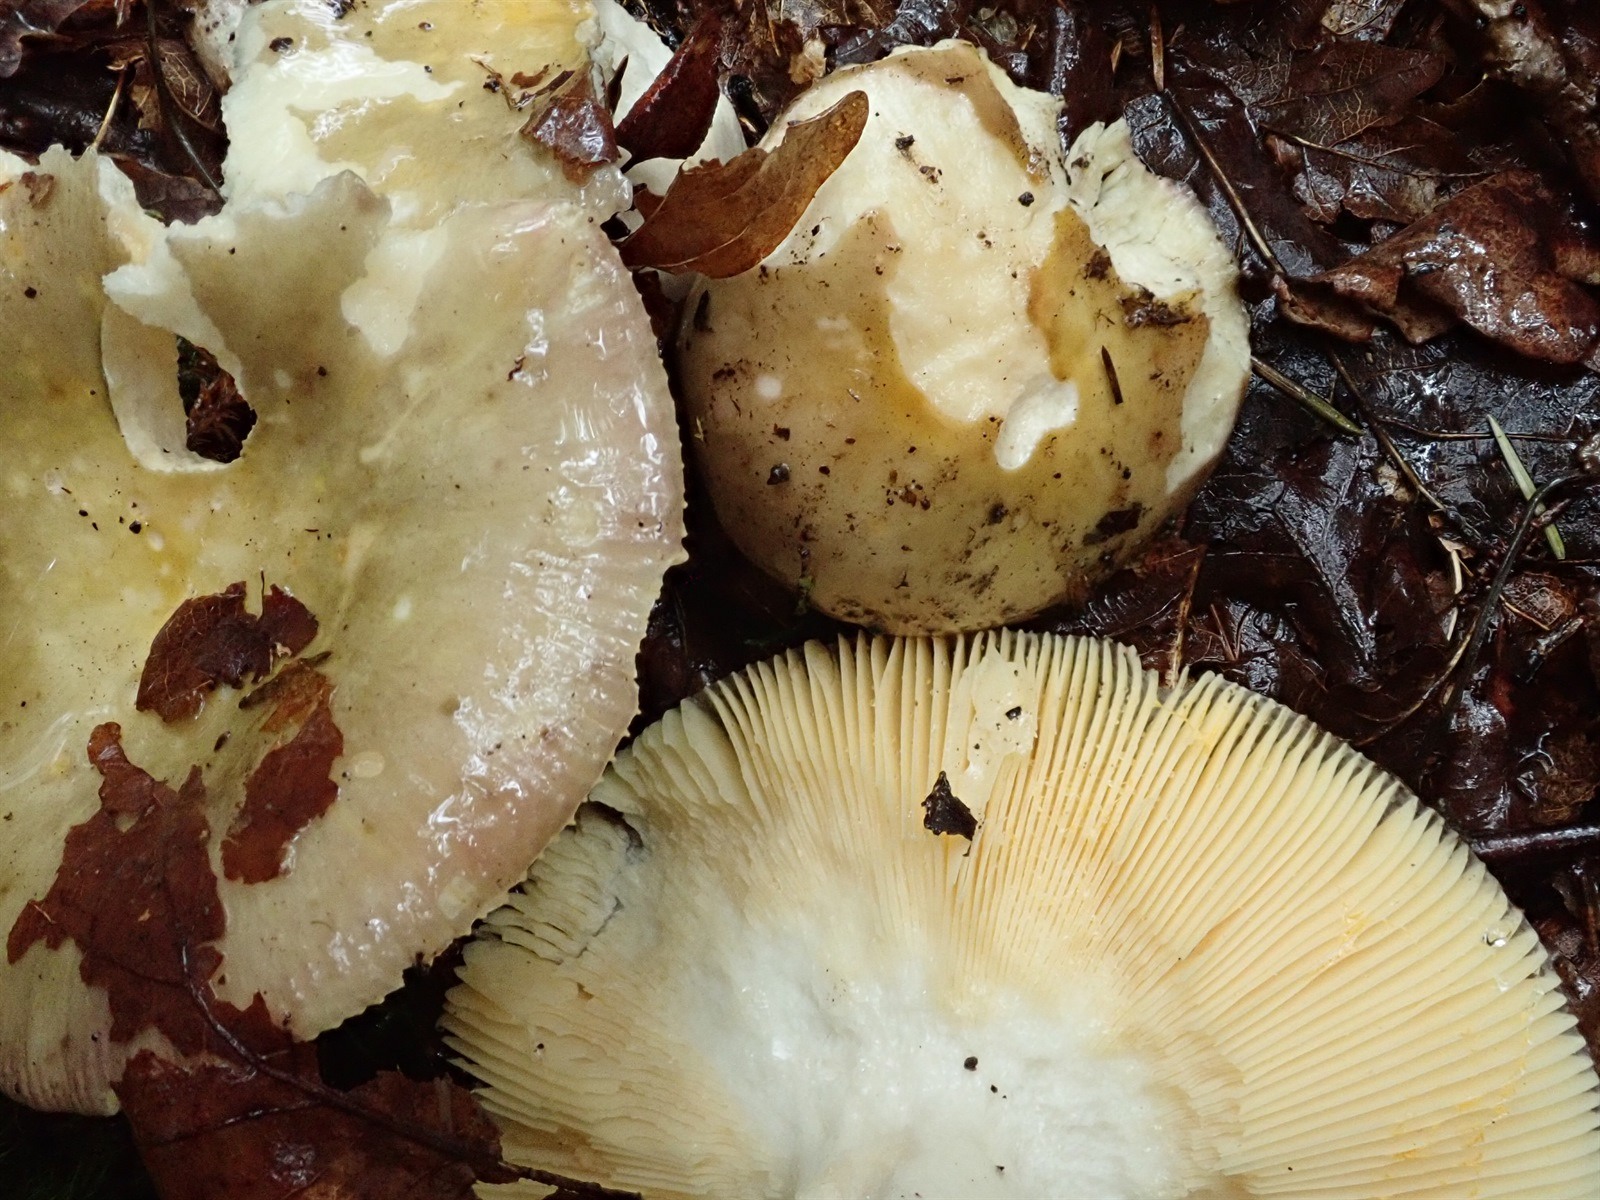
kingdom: Fungi
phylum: Basidiomycota
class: Agaricomycetes
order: Russulales
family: Russulaceae
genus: Russula
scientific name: Russula fulvograminea
